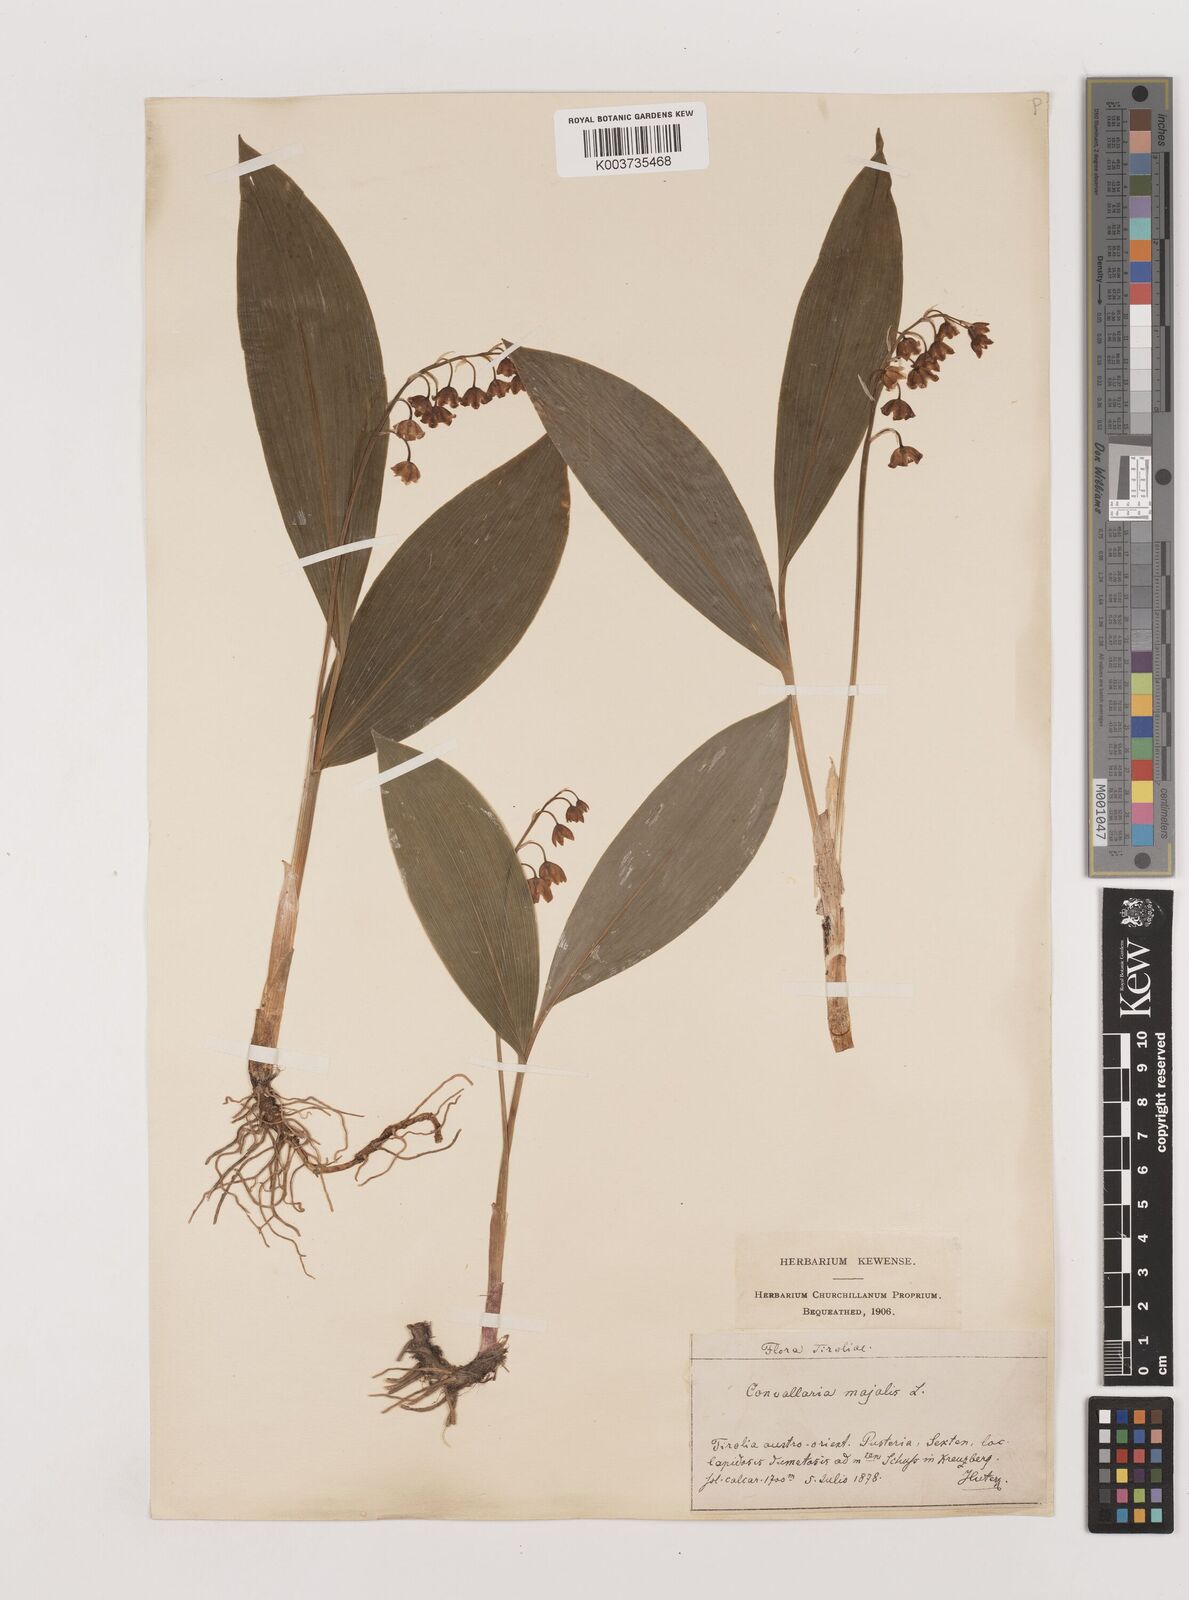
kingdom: Plantae
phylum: Tracheophyta
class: Liliopsida
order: Asparagales
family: Asparagaceae
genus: Convallaria
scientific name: Convallaria majalis
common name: Lily-of-the-valley
